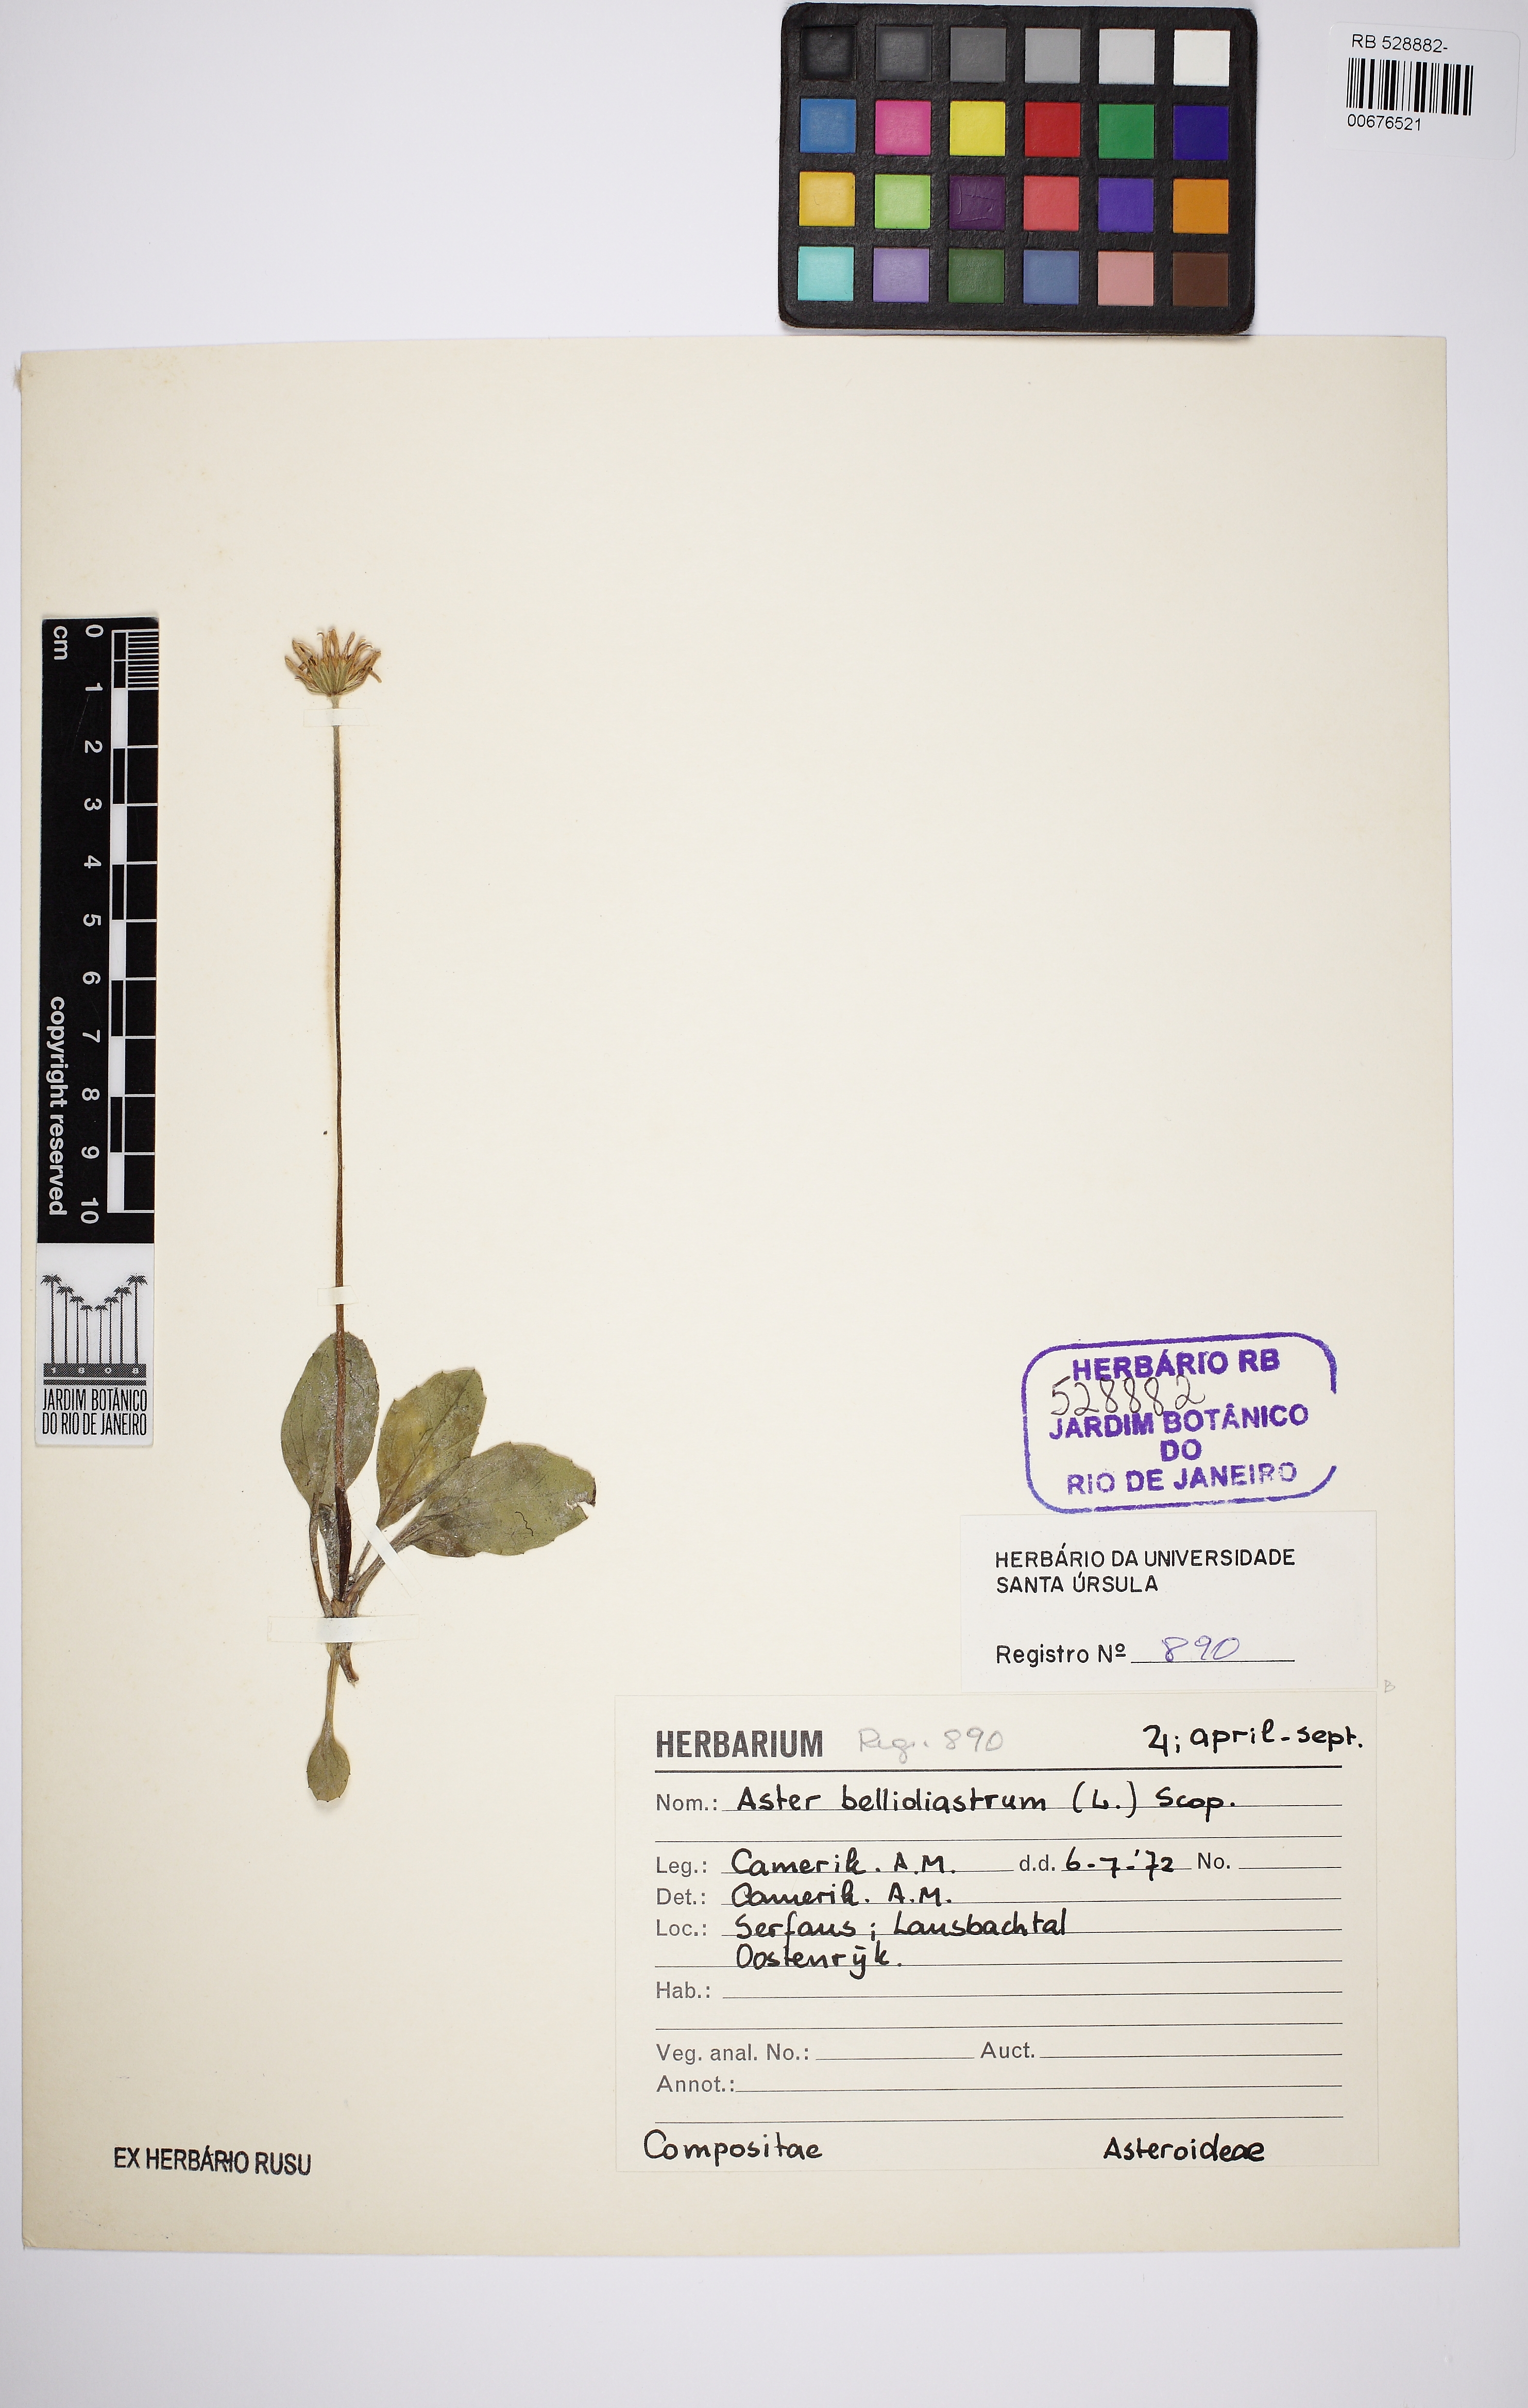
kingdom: Plantae
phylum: Tracheophyta
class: Magnoliopsida
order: Asterales
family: Asteraceae
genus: Bellidiastrum
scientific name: Bellidiastrum michelii
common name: Daisy-star aster
